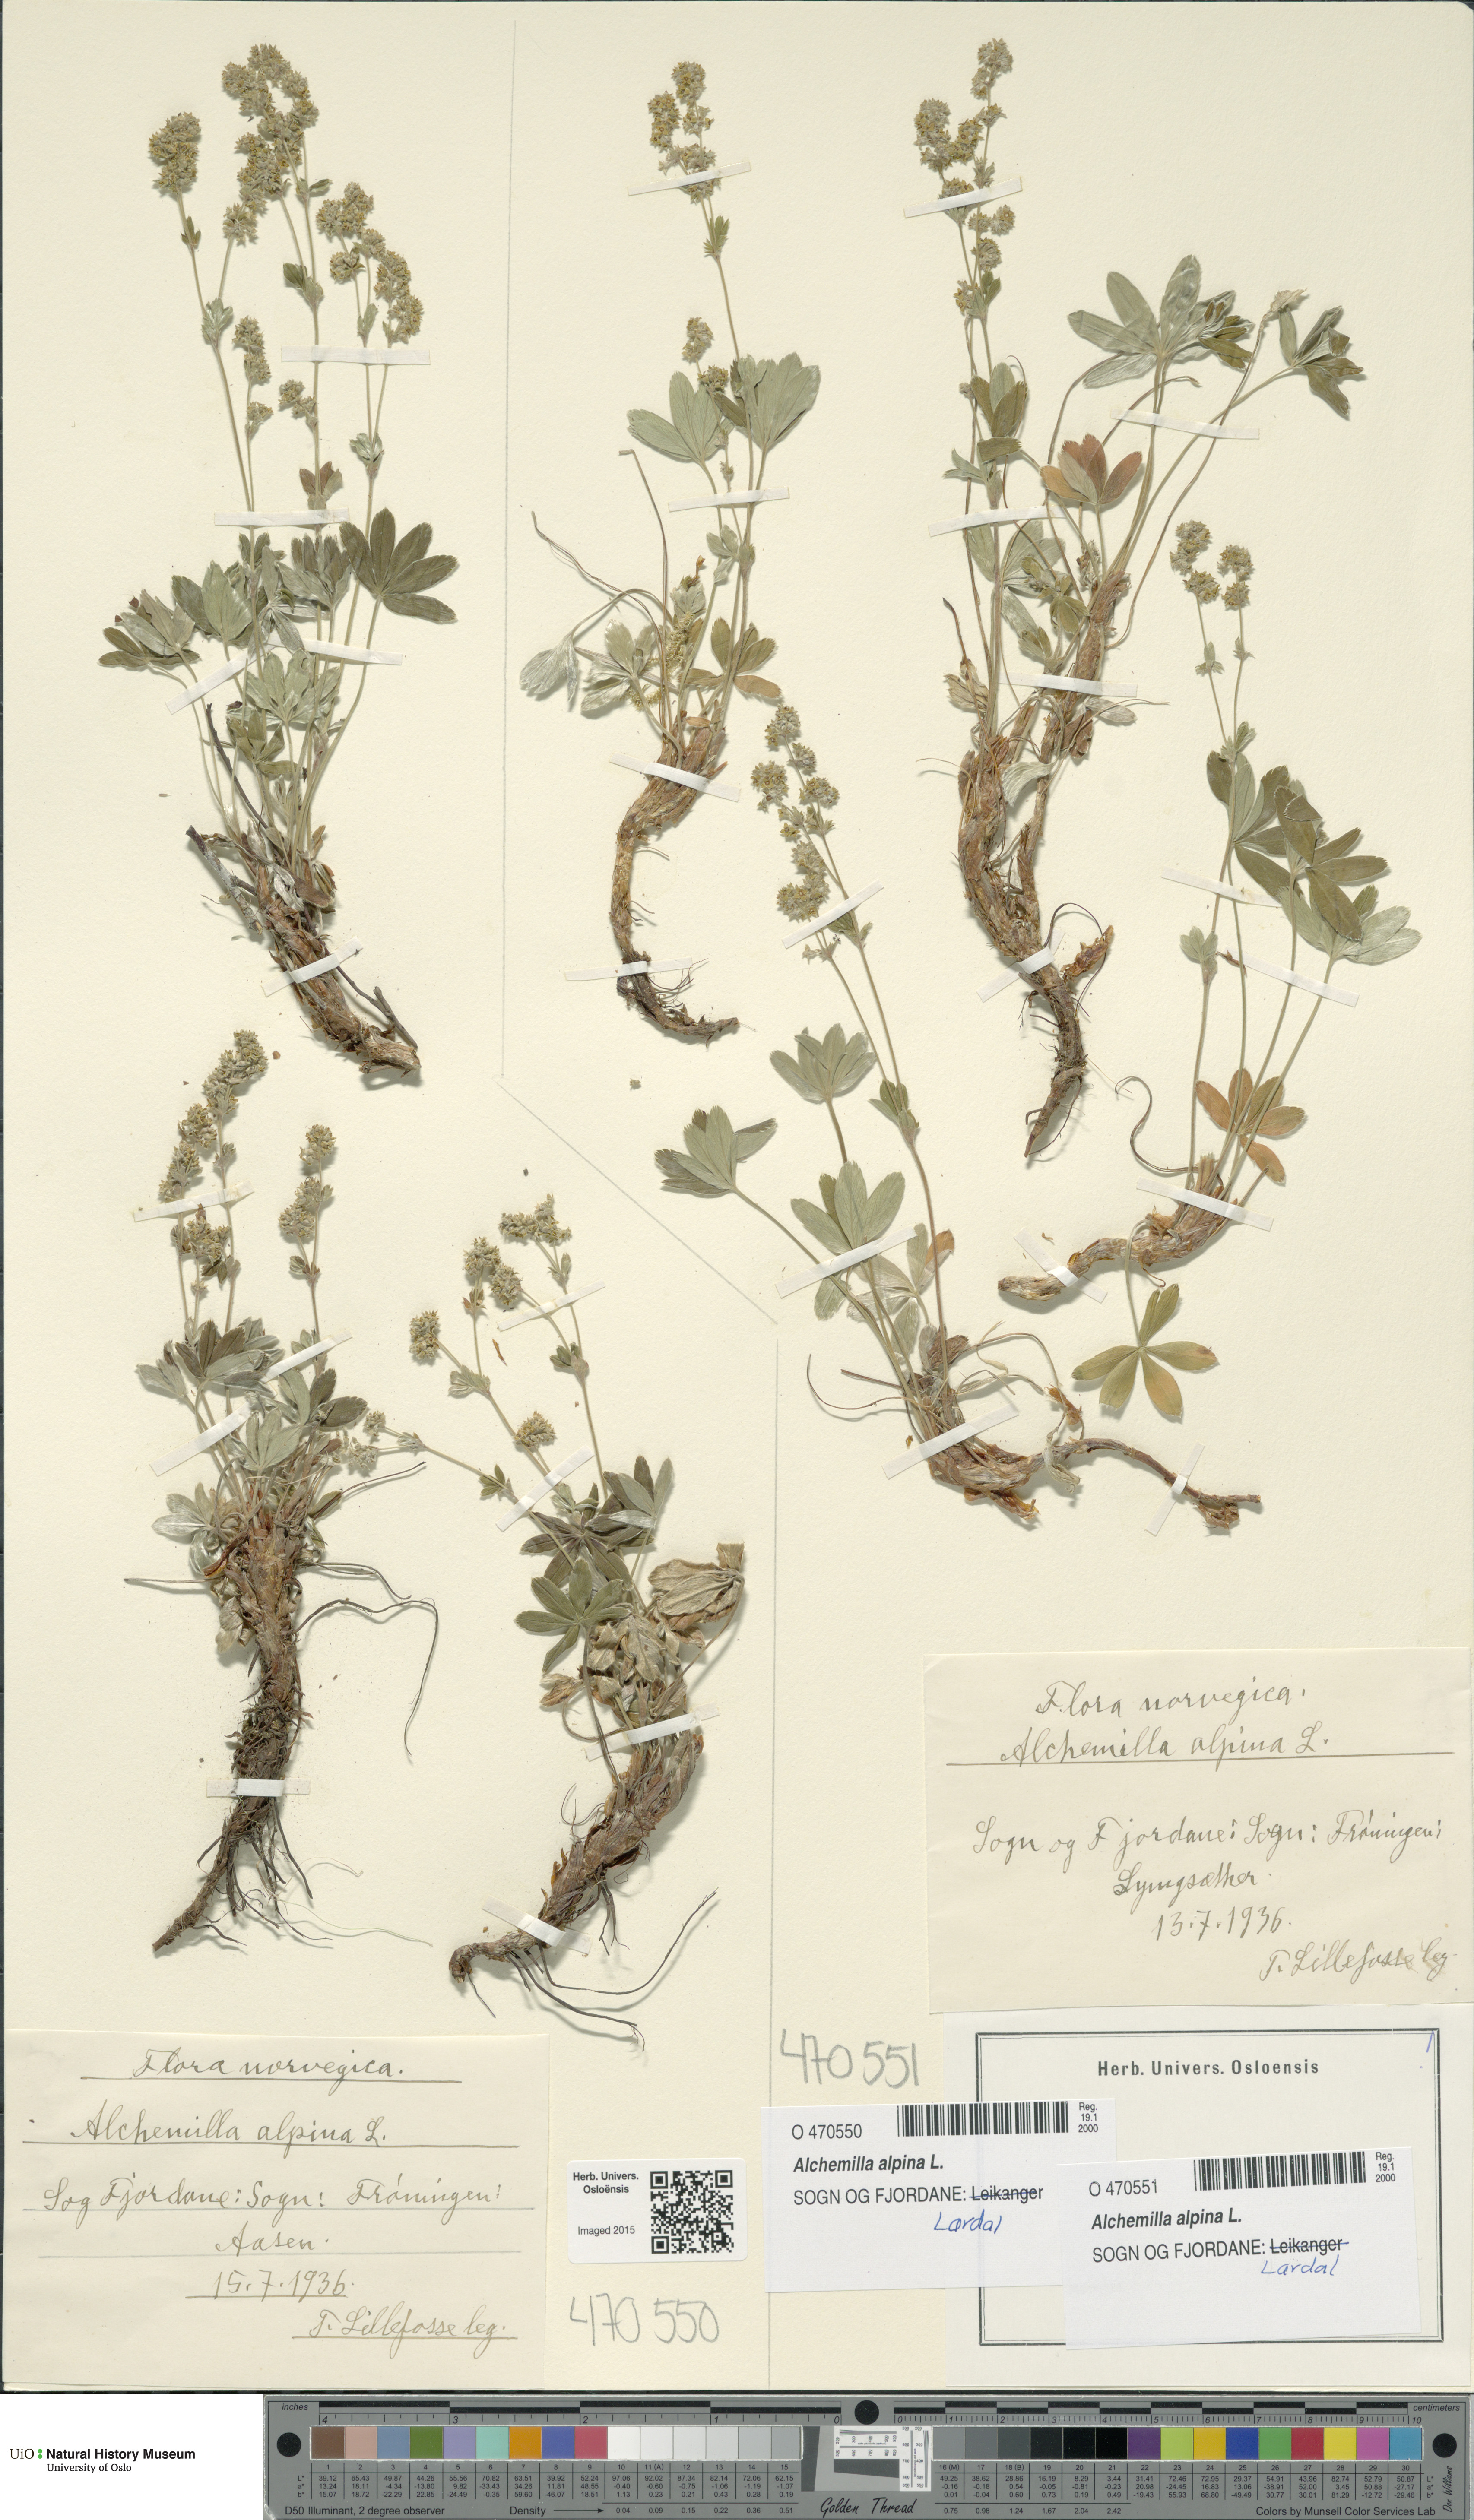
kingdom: Plantae
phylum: Tracheophyta
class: Magnoliopsida
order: Rosales
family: Rosaceae
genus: Alchemilla
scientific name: Alchemilla alpina
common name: Alpine lady's-mantle
